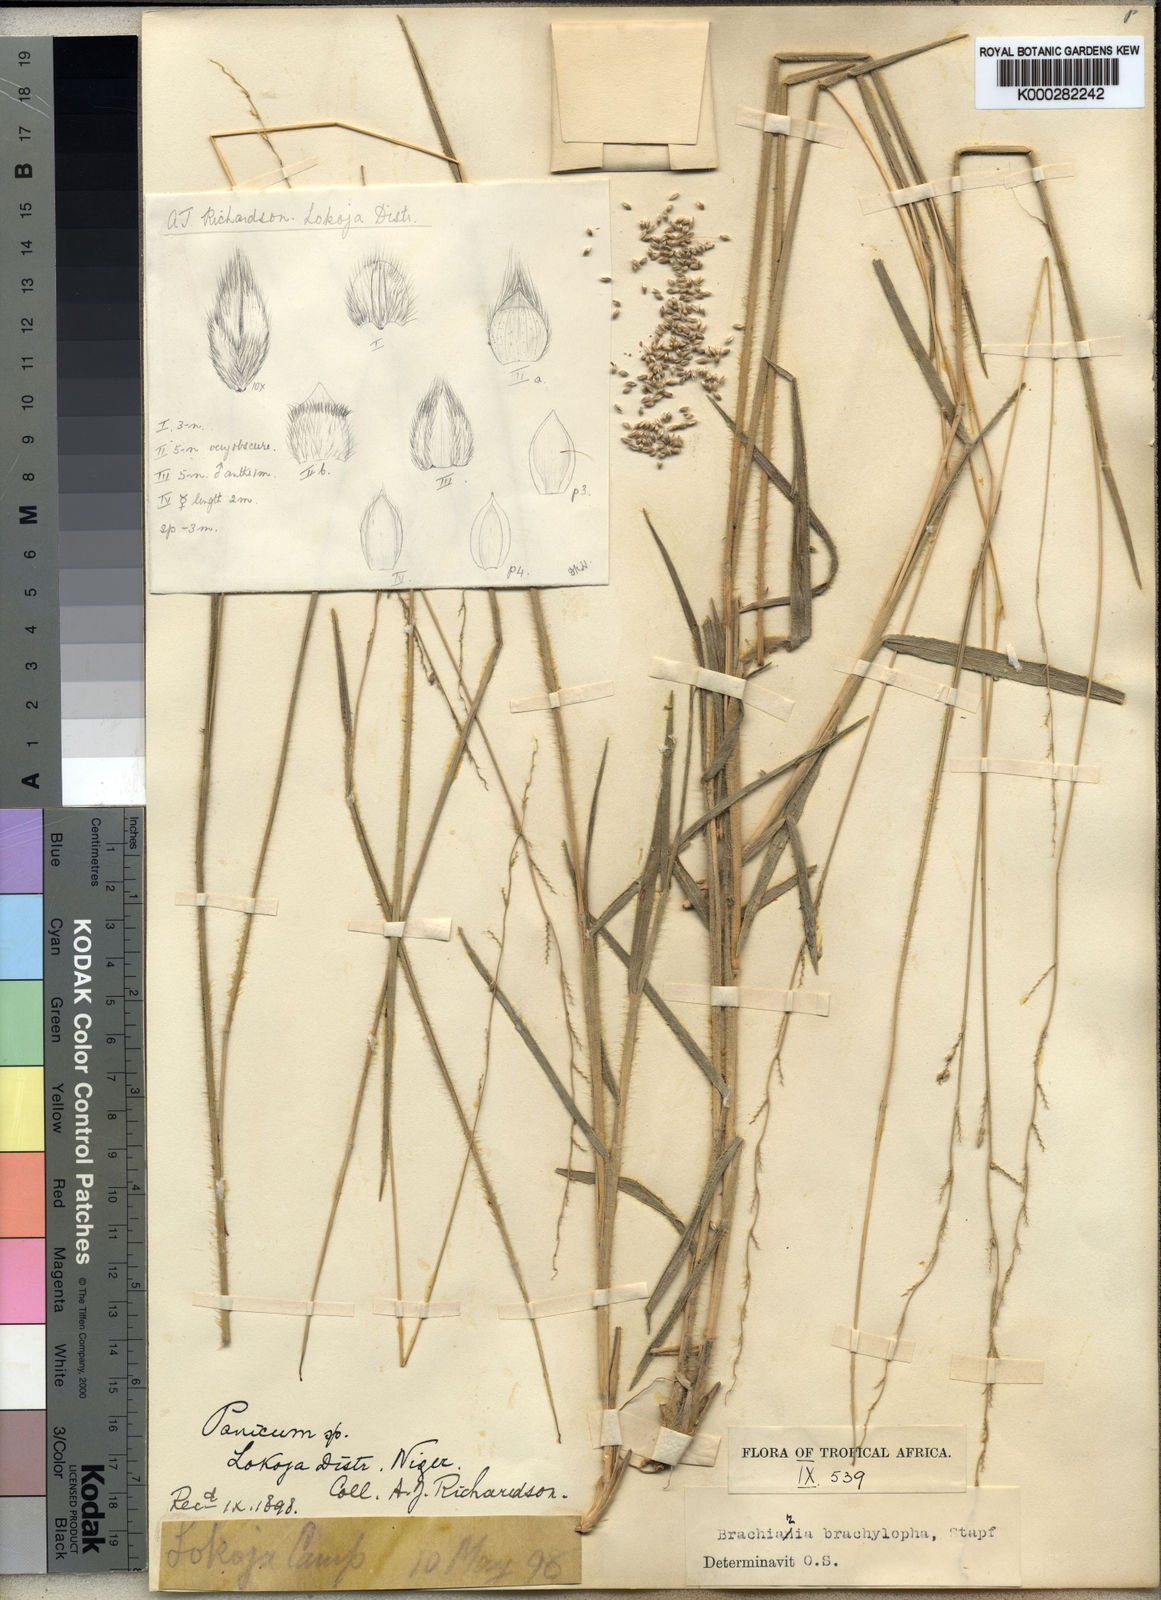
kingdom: Plantae
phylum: Tracheophyta
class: Liliopsida
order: Poales
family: Poaceae
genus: Urochloa
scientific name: Urochloa serrata
